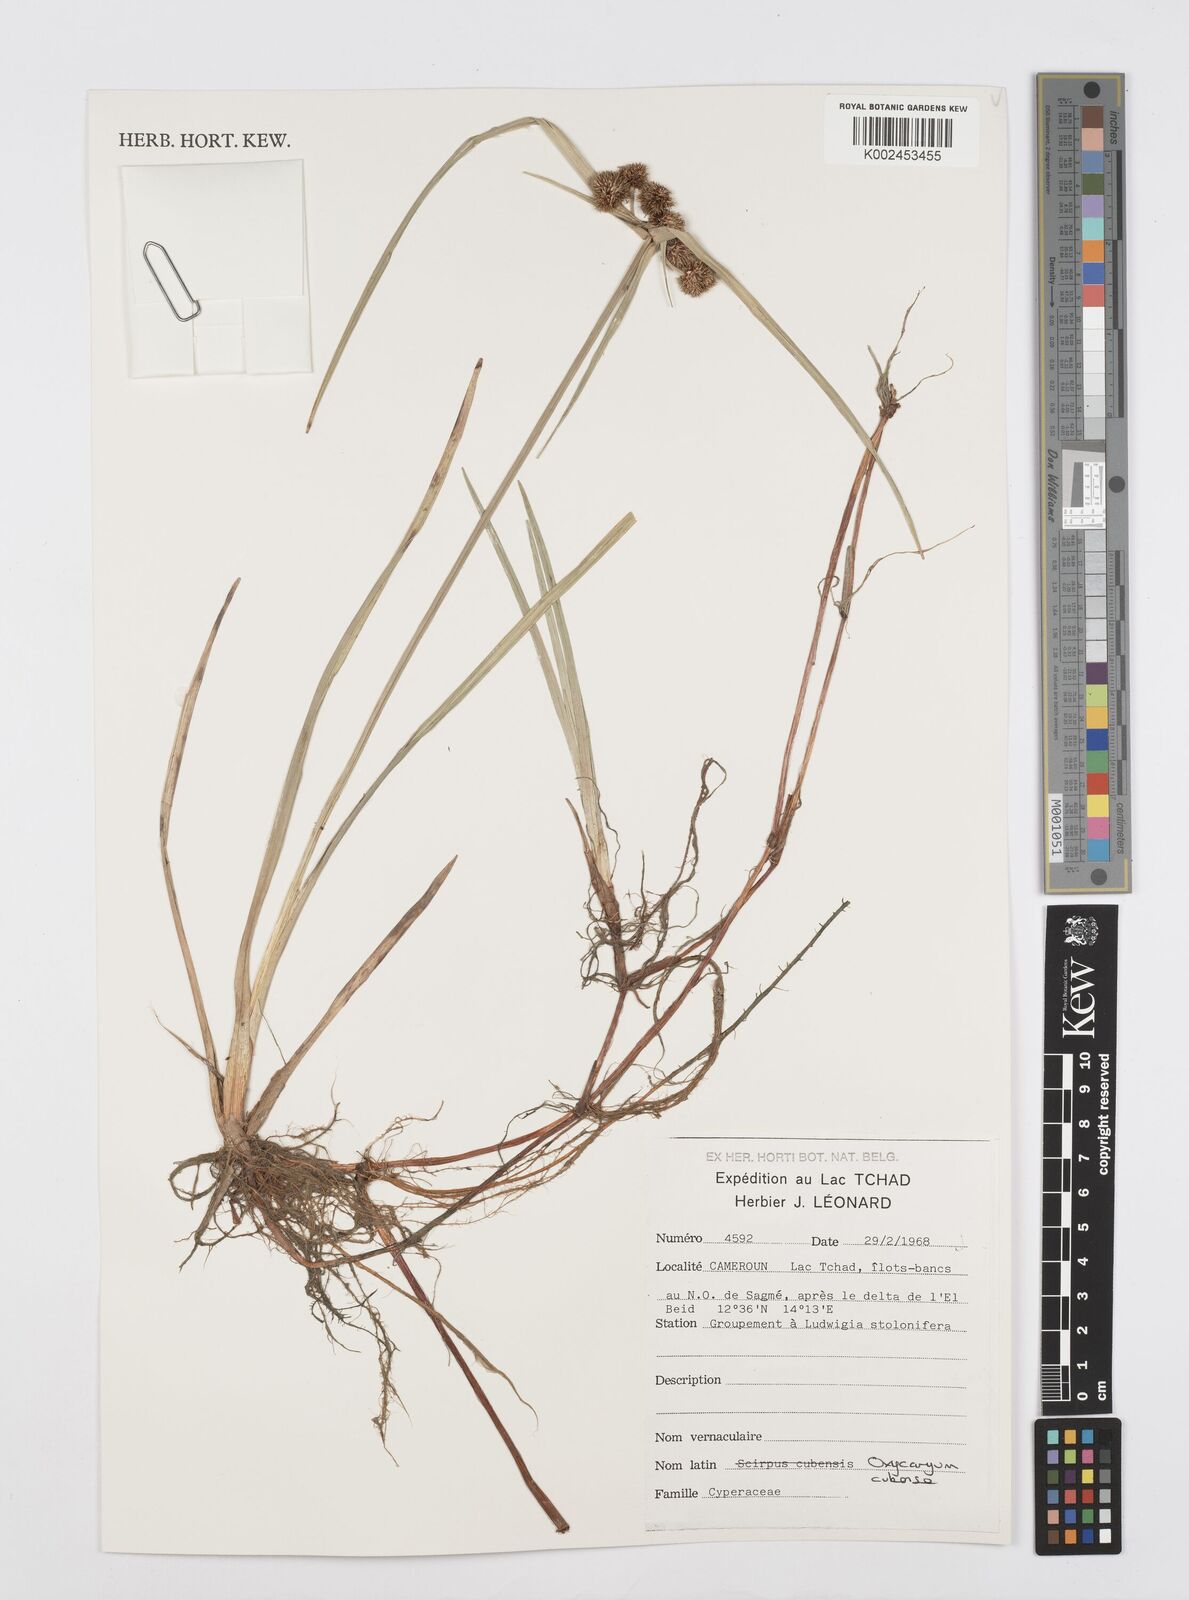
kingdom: Plantae
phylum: Tracheophyta
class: Liliopsida
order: Poales
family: Cyperaceae
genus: Cyperus
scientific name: Cyperus elegans
